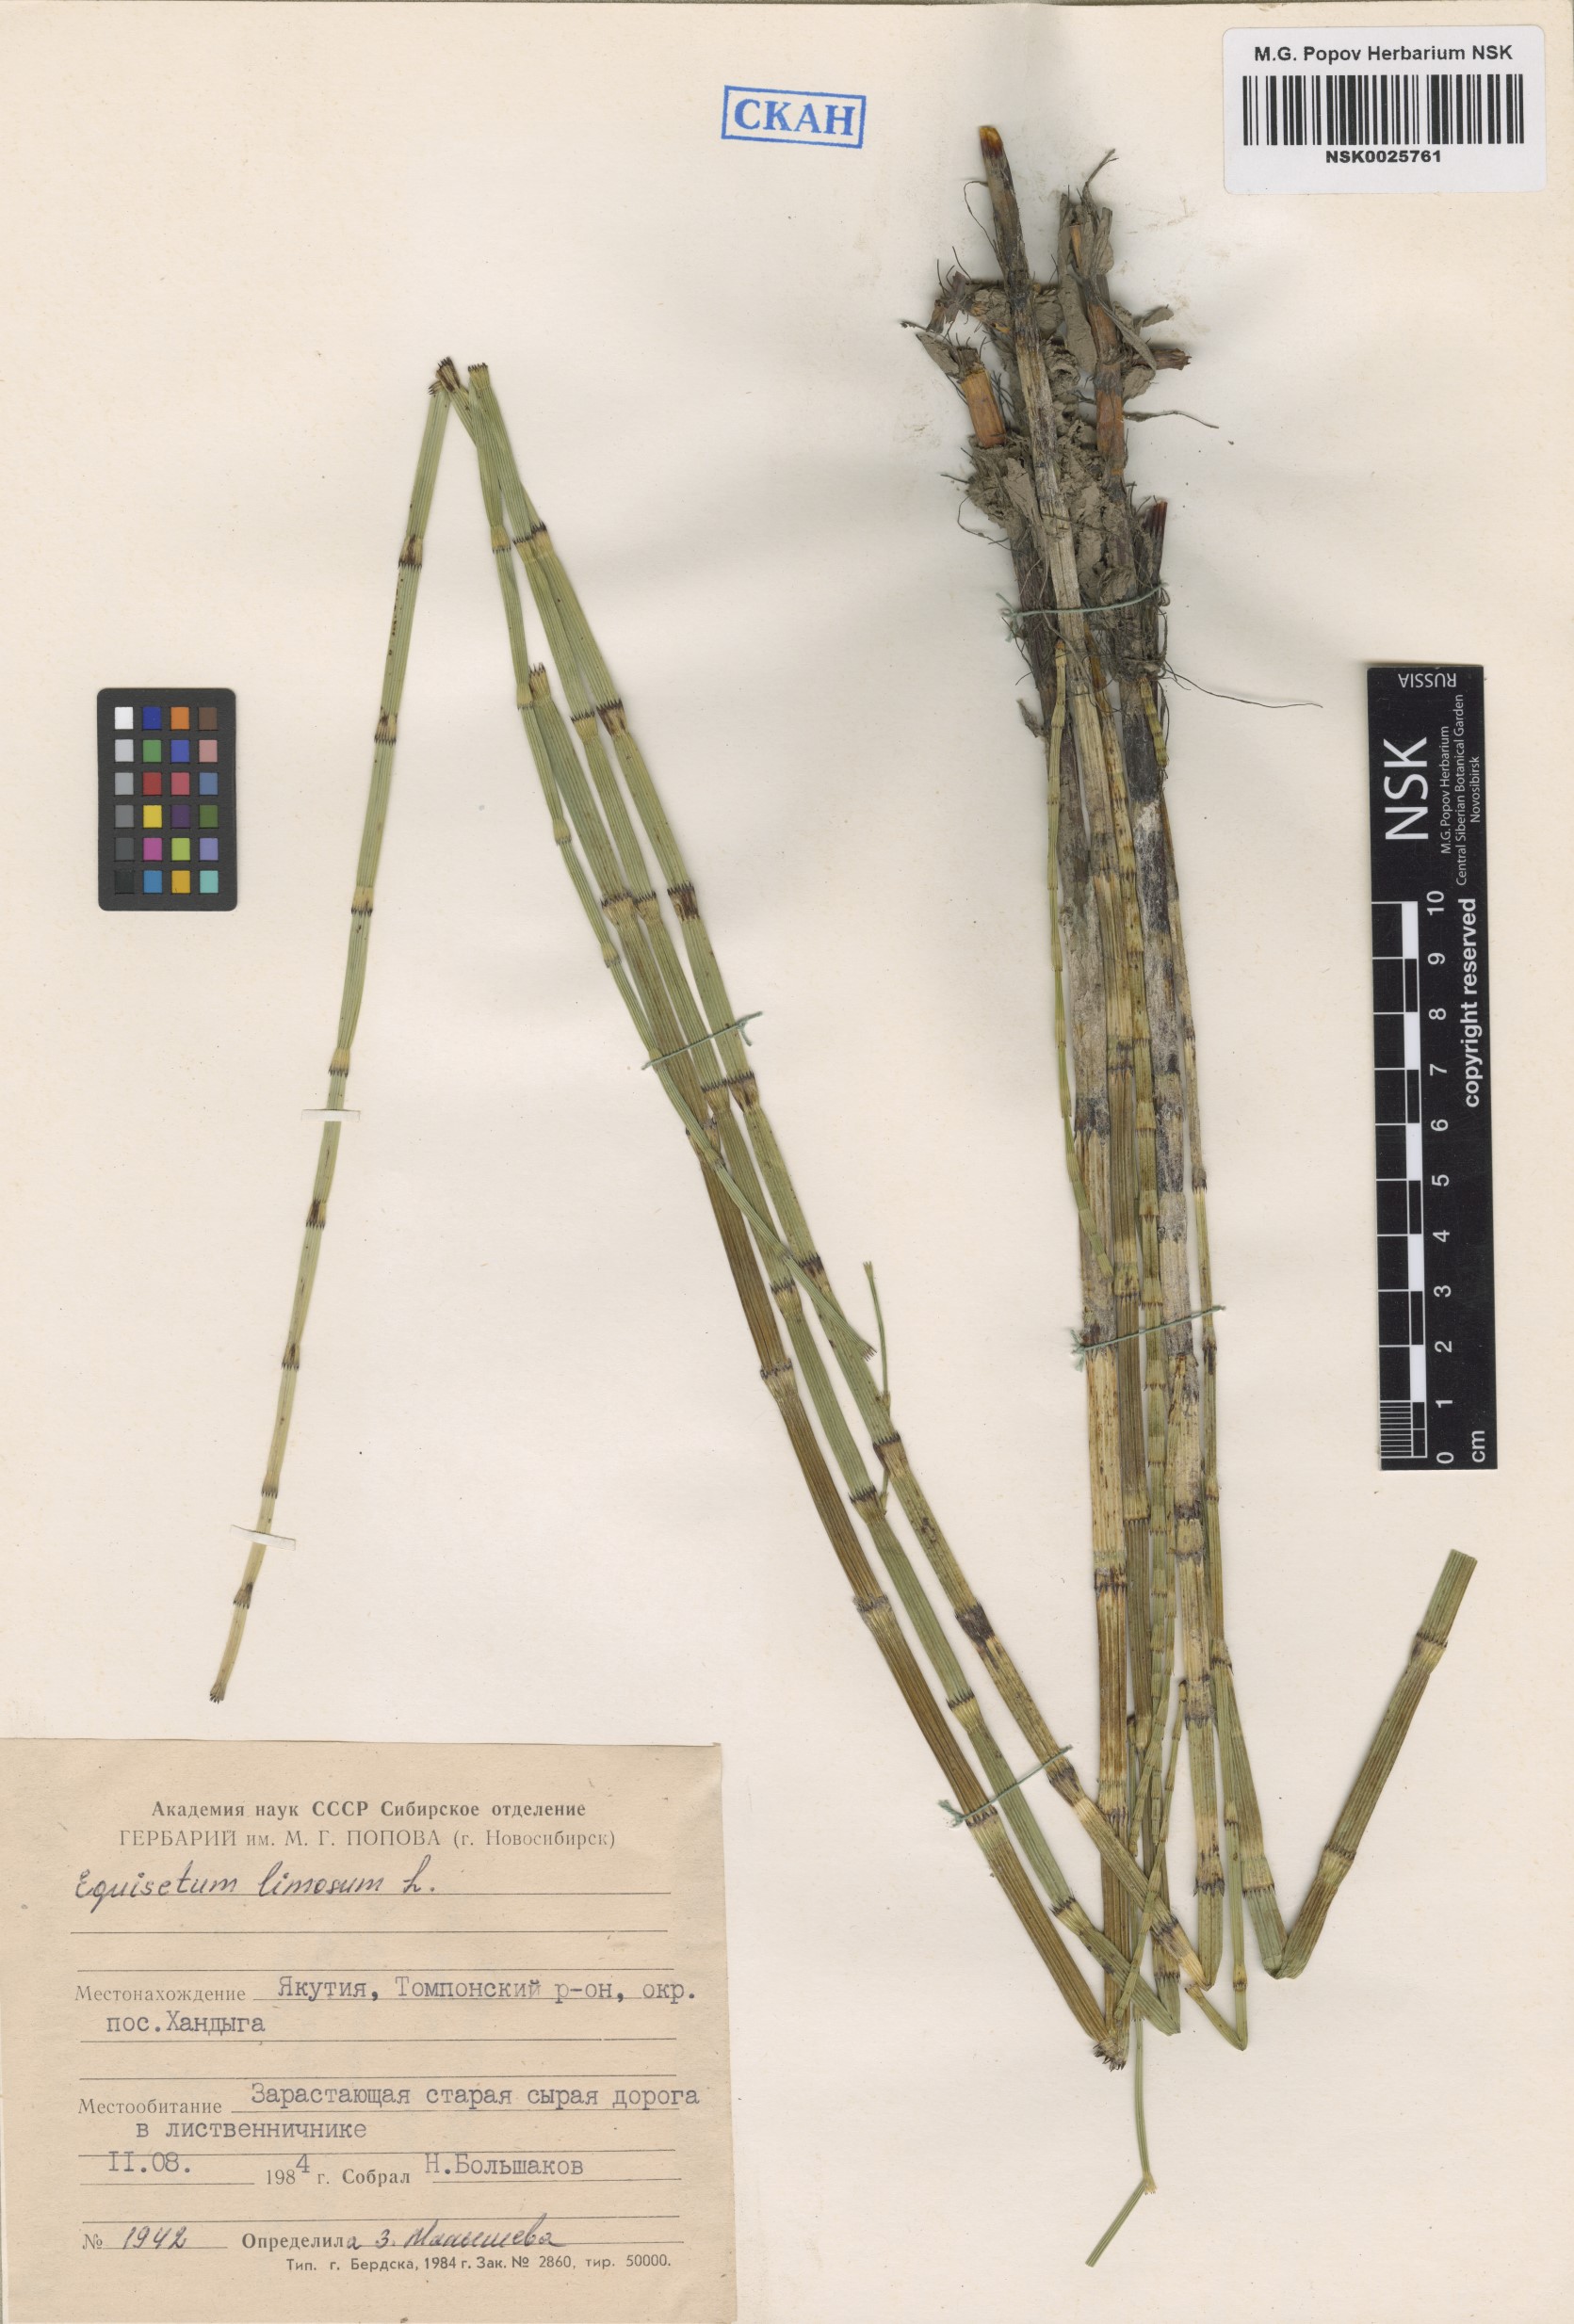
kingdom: Plantae
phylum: Tracheophyta
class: Polypodiopsida
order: Equisetales
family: Equisetaceae
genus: Equisetum
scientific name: Equisetum fluviatile
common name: Water horsetail
